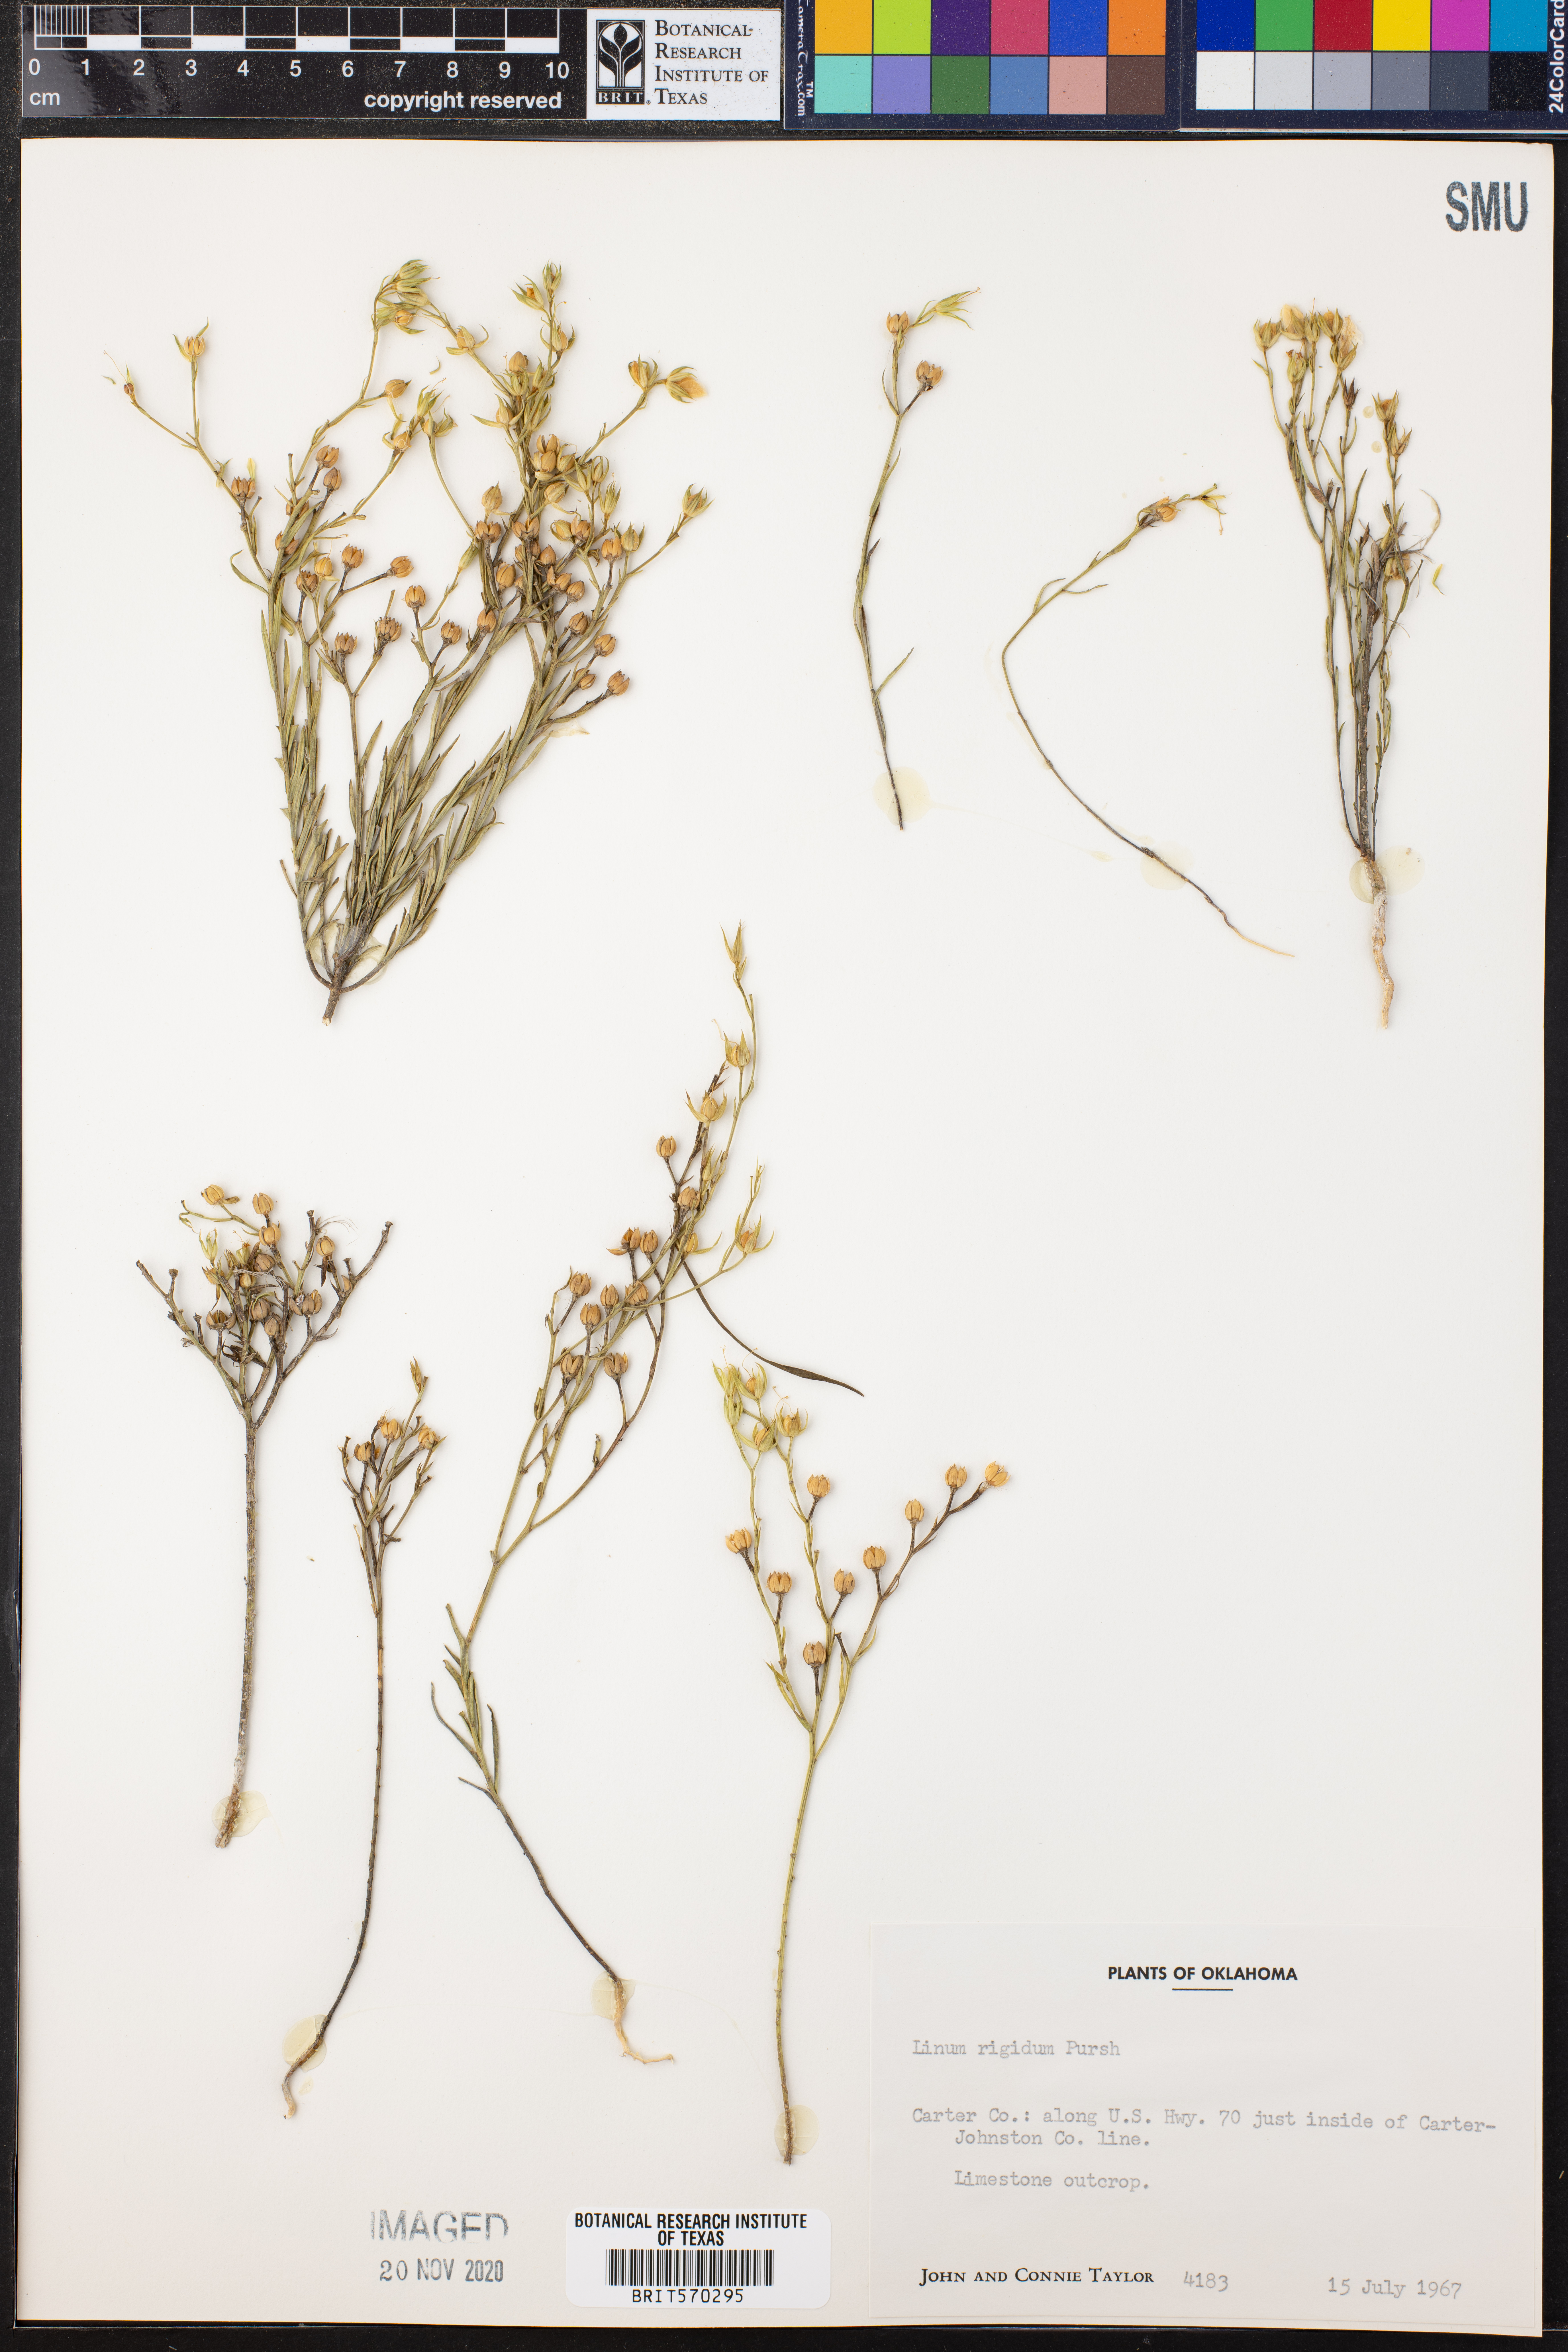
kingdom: Plantae
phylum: Tracheophyta
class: Magnoliopsida
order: Malpighiales
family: Linaceae
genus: Linum
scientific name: Linum rigidum
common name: Stiff-stem flax
